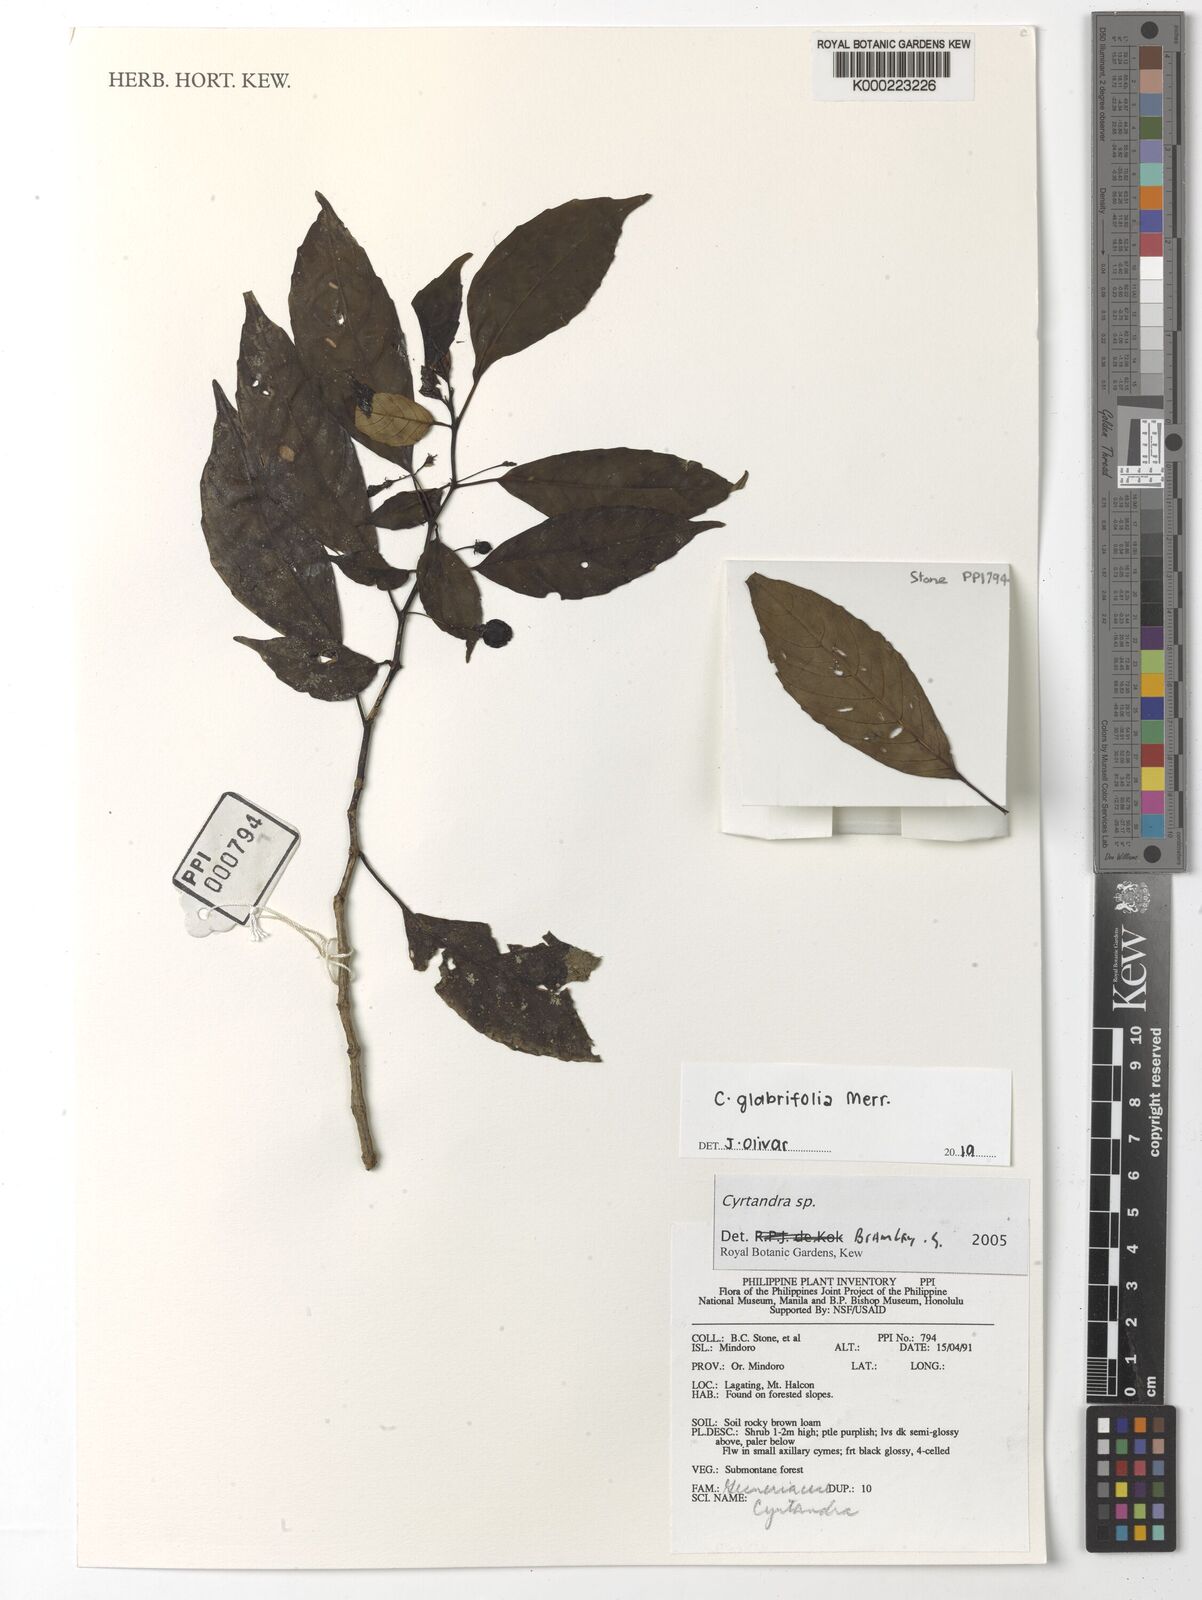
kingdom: Plantae
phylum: Tracheophyta
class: Magnoliopsida
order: Lamiales
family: Gesneriaceae
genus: Cyrtandra
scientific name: Cyrtandra
